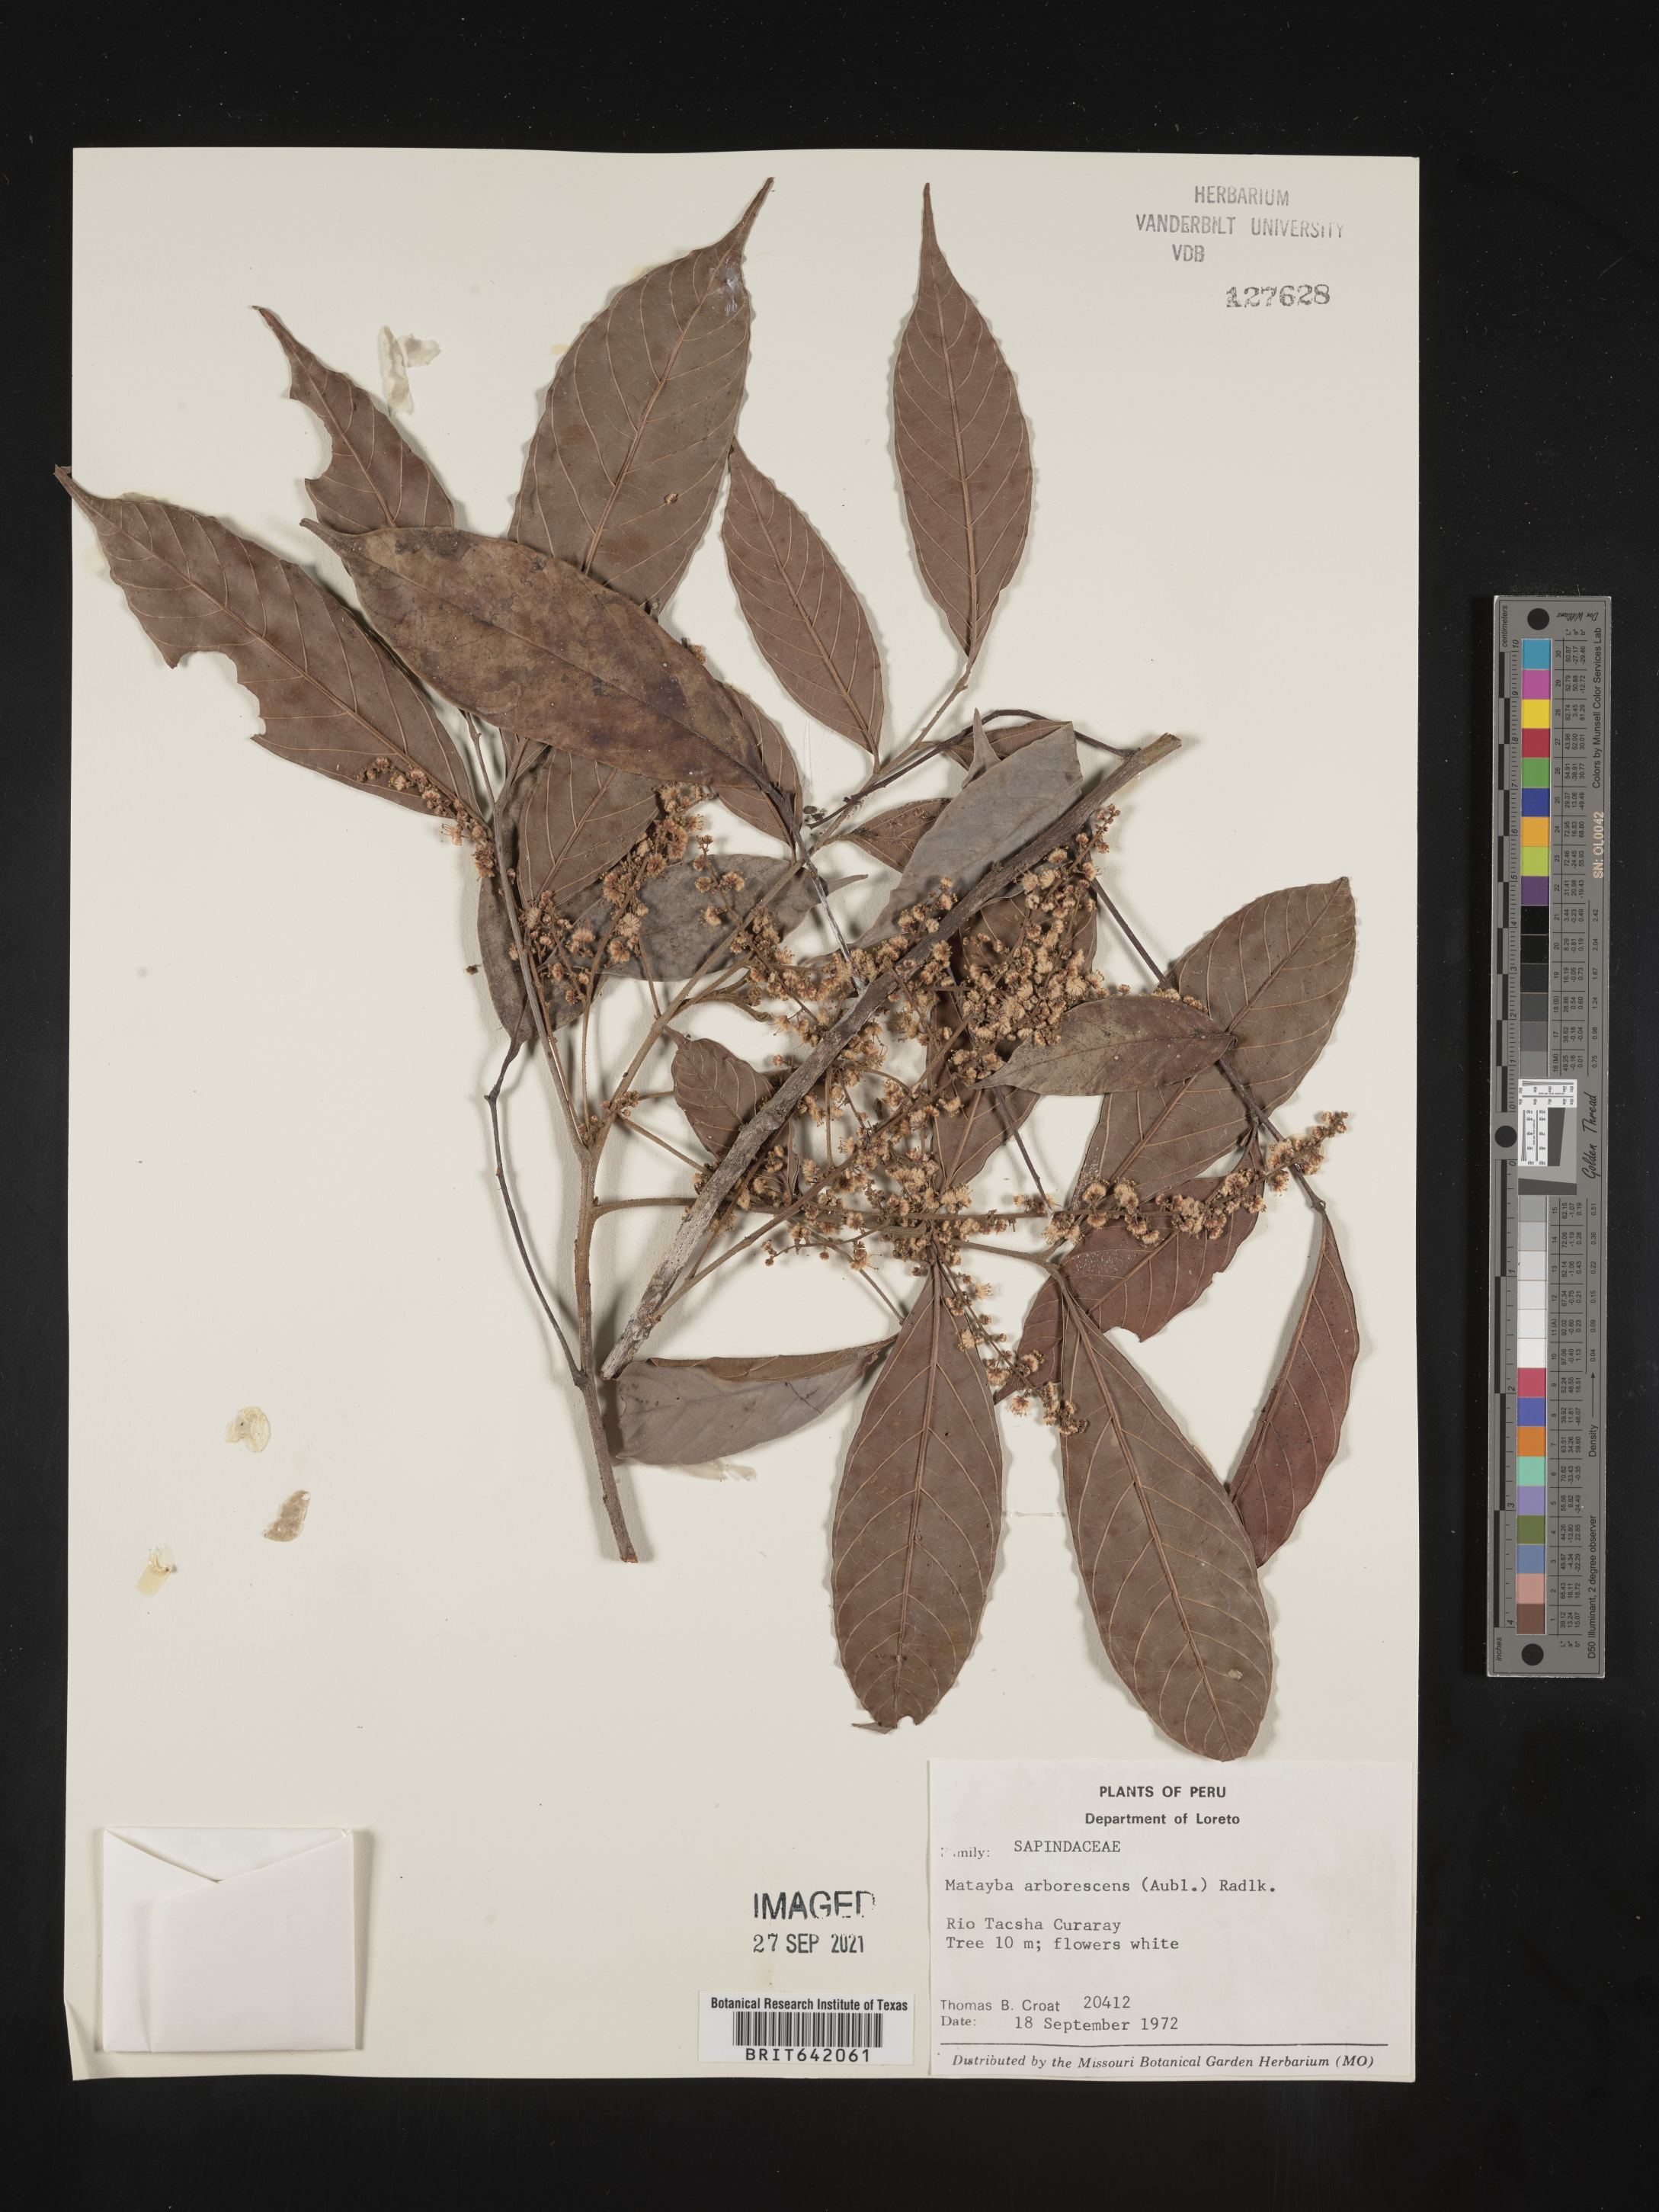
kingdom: Plantae
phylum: Tracheophyta
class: Magnoliopsida
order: Sapindales
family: Sapindaceae
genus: Matayba
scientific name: Matayba
